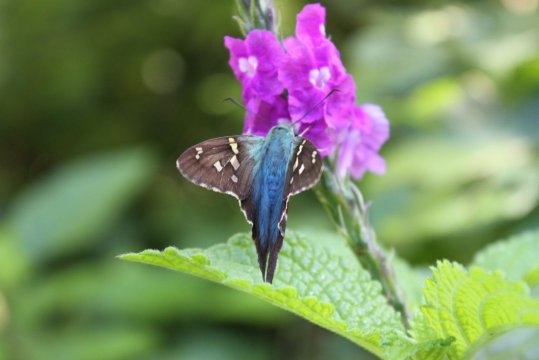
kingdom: Animalia
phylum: Arthropoda
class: Insecta
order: Lepidoptera
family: Hesperiidae
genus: Urbanus
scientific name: Urbanus proteus
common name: Long-tailed Skipper
